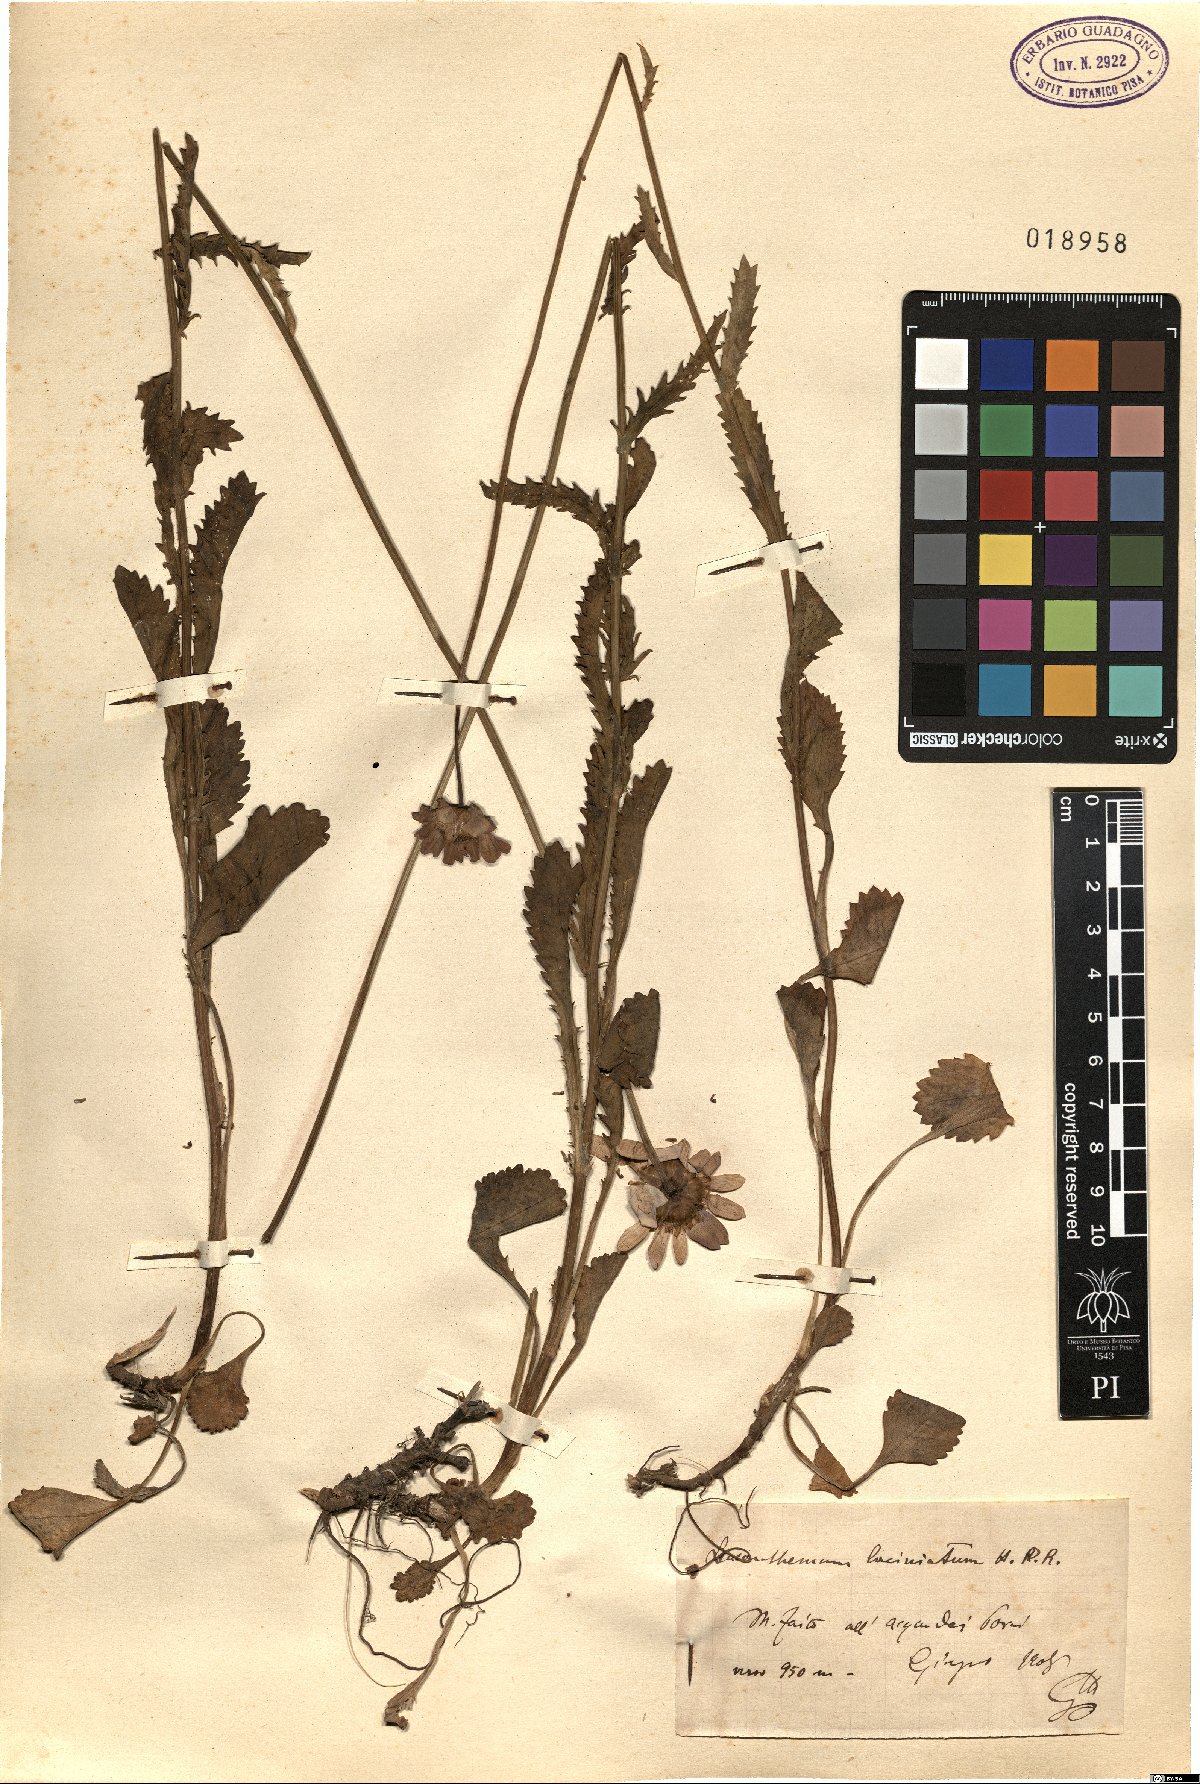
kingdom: Plantae
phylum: Tracheophyta
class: Magnoliopsida
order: Asterales
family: Asteraceae
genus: Leucanthemum
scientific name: Leucanthemum laciniatum
